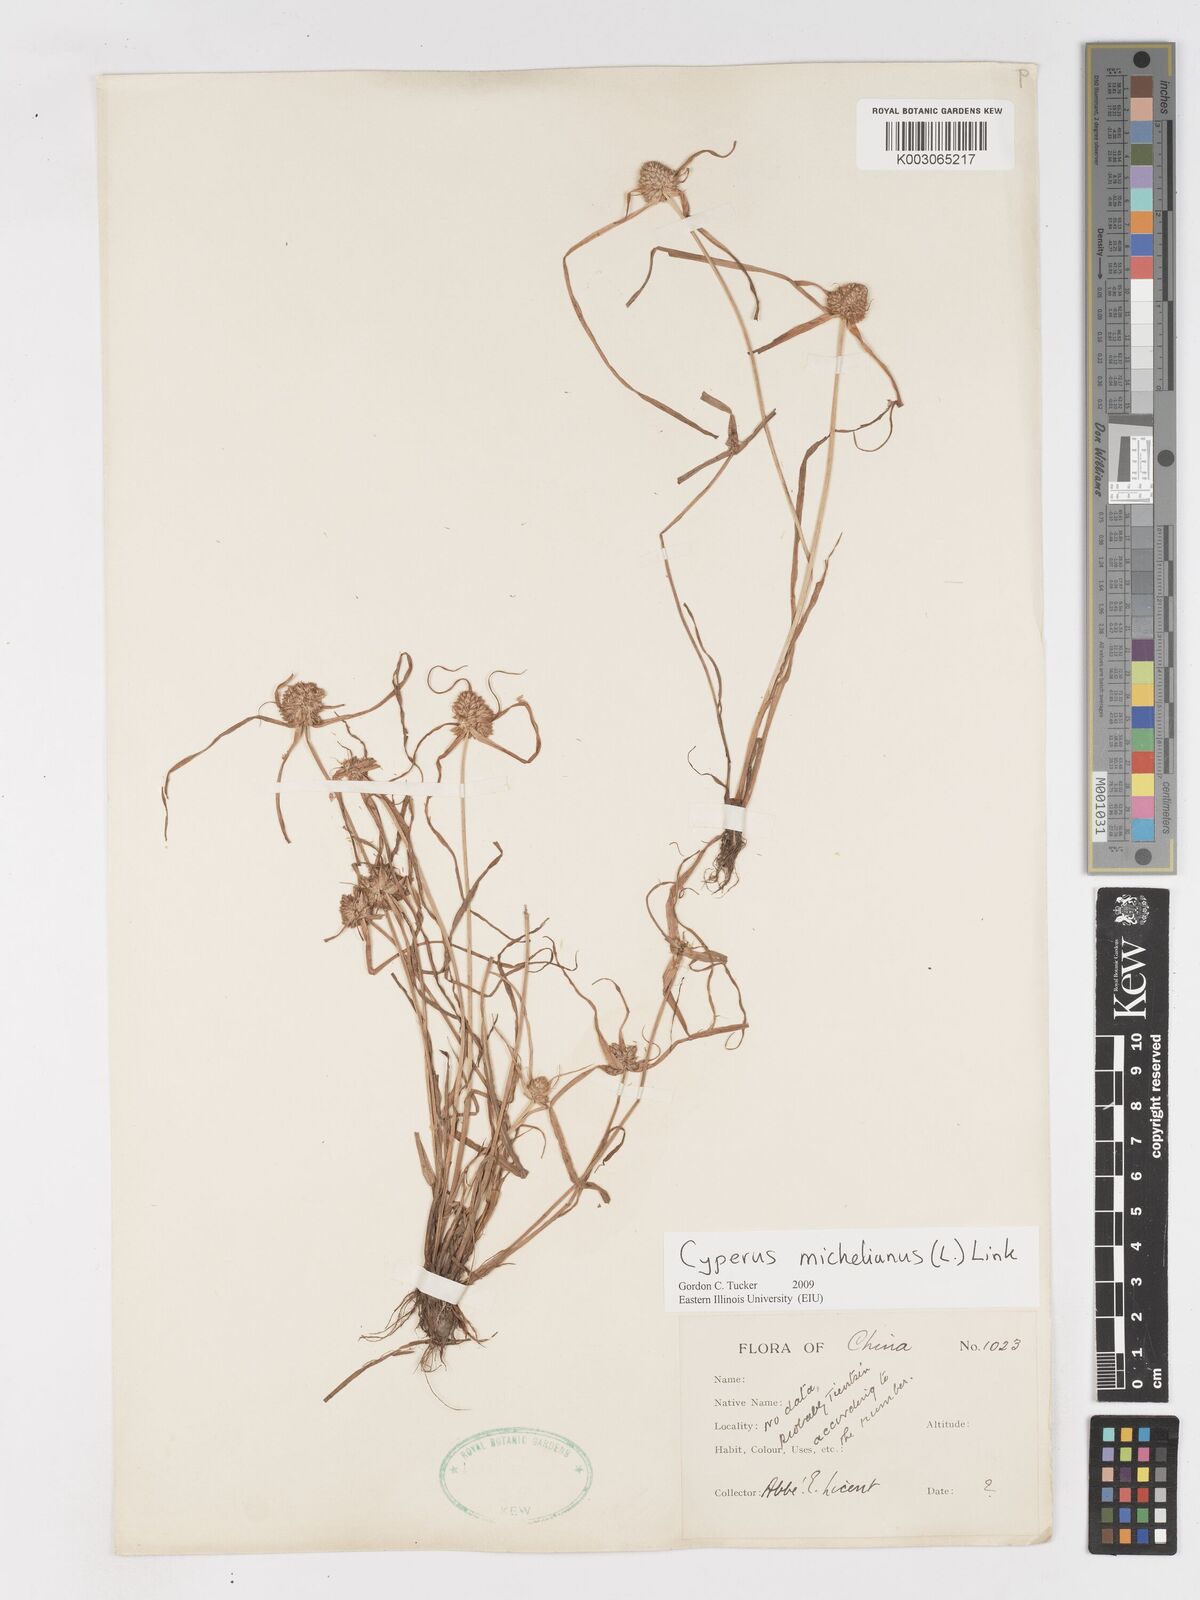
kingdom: Plantae
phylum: Tracheophyta
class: Liliopsida
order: Poales
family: Cyperaceae
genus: Cyperus
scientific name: Cyperus michelianus
